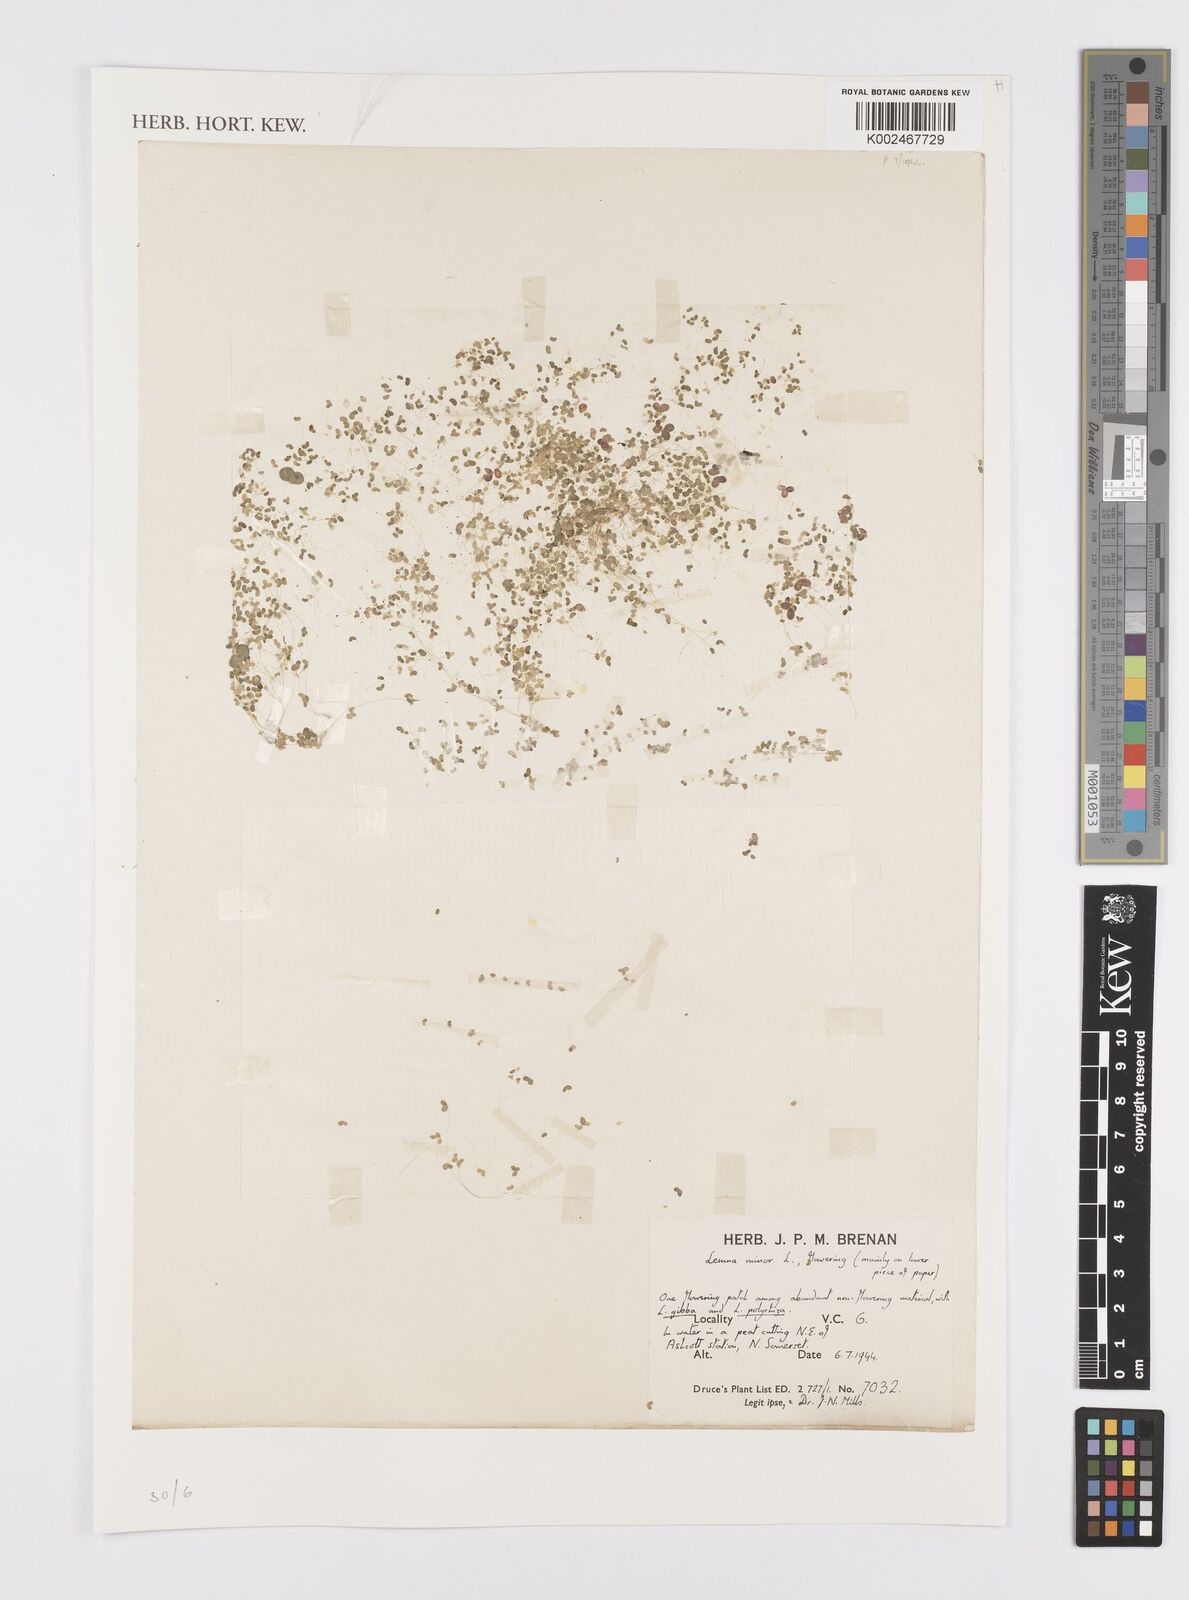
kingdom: Plantae
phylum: Tracheophyta
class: Liliopsida
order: Alismatales
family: Araceae
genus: Lemna
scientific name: Lemna minor
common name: Common duckweed
